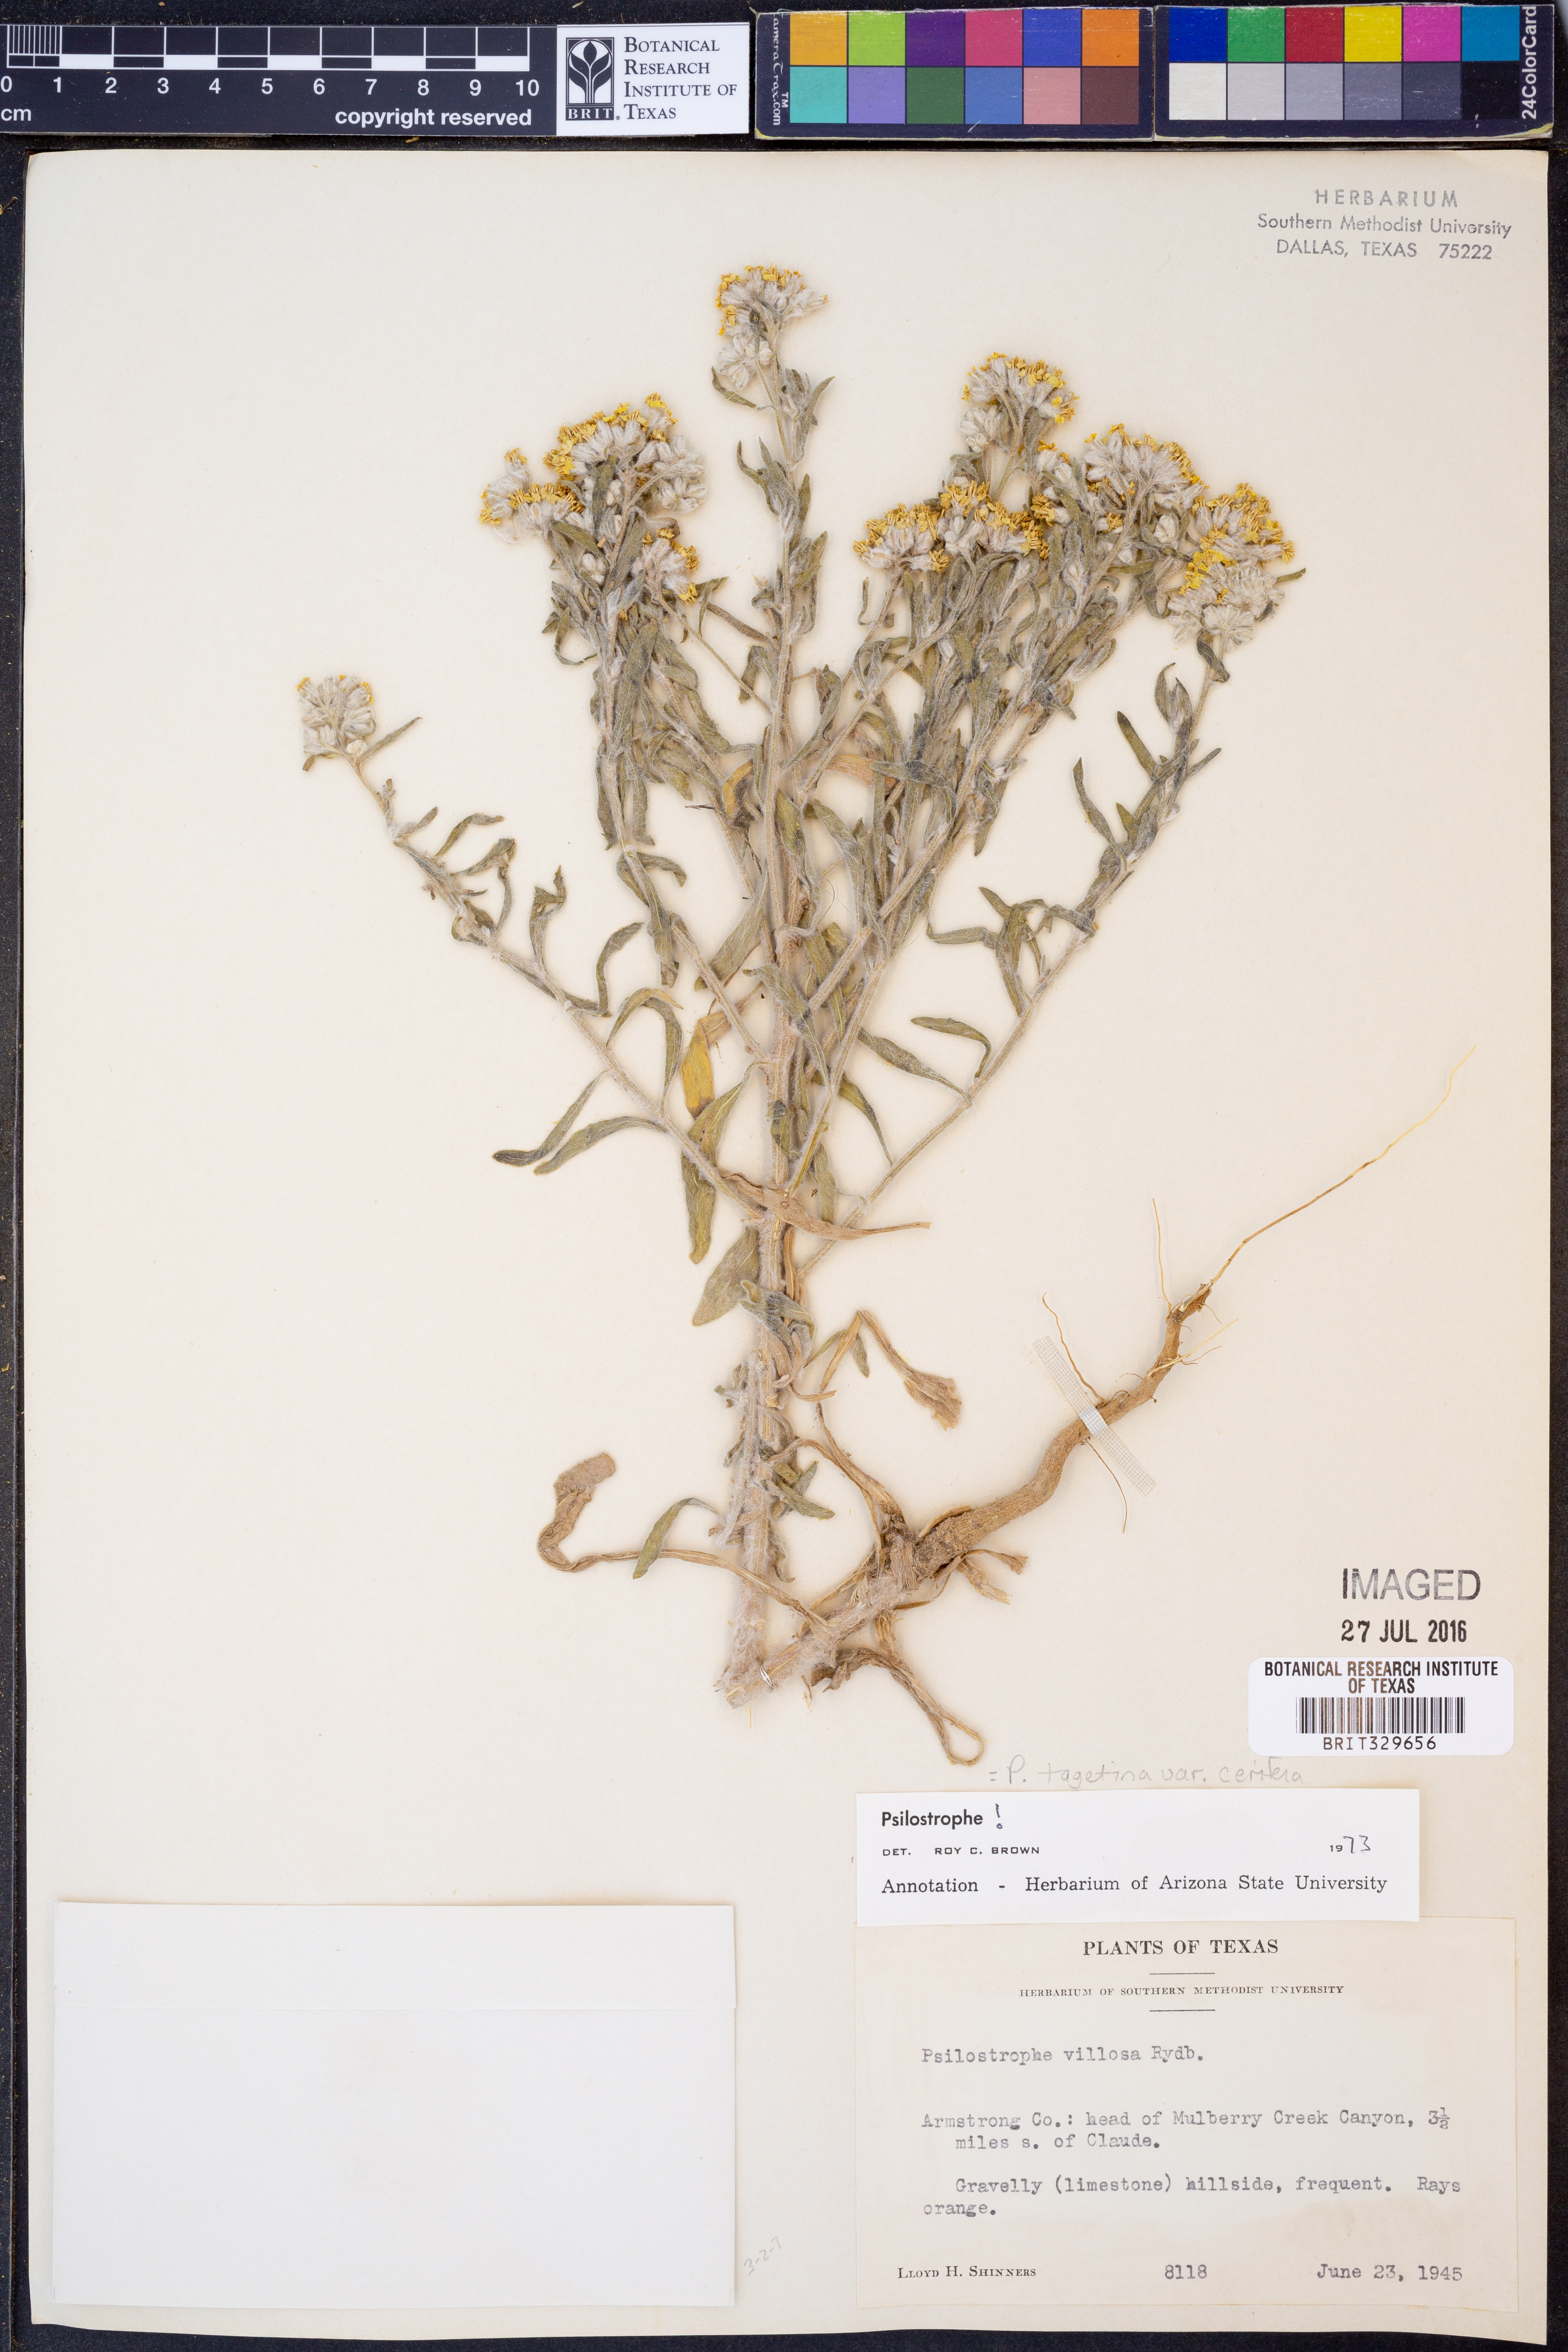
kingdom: Plantae
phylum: Tracheophyta
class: Magnoliopsida
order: Asterales
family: Asteraceae
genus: Psilostrophe
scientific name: Psilostrophe villosa
